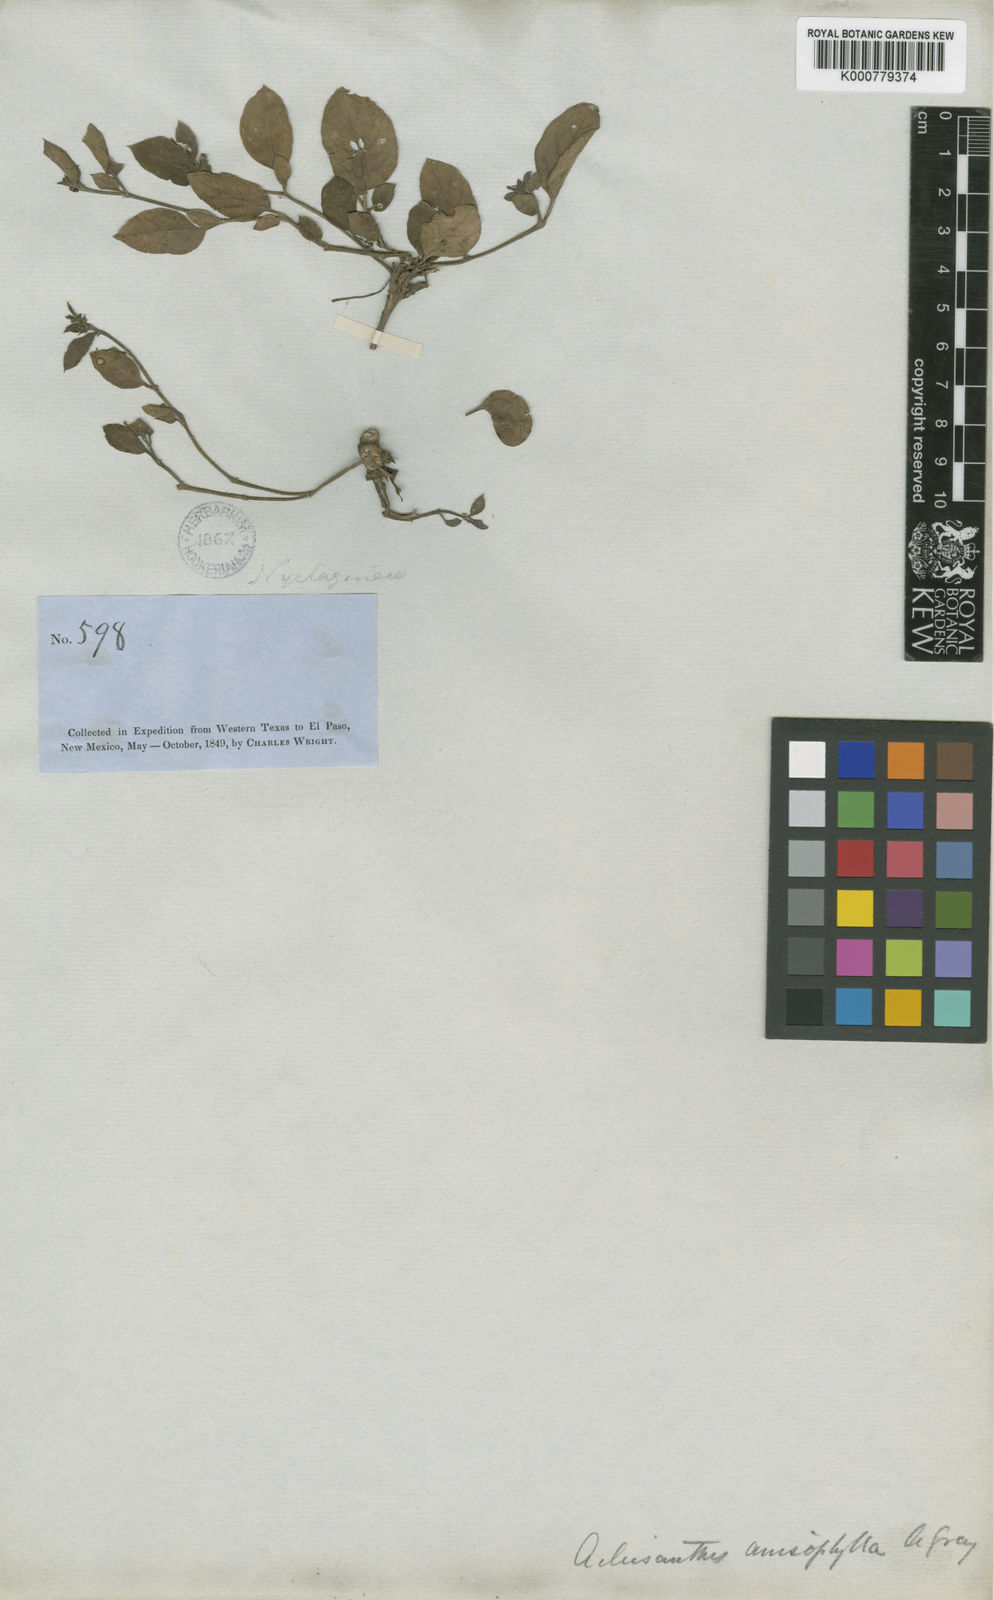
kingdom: Plantae
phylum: Tracheophyta
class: Magnoliopsida
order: Caryophyllales
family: Nyctaginaceae
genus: Acleisanthes
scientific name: Acleisanthes anisophylla
